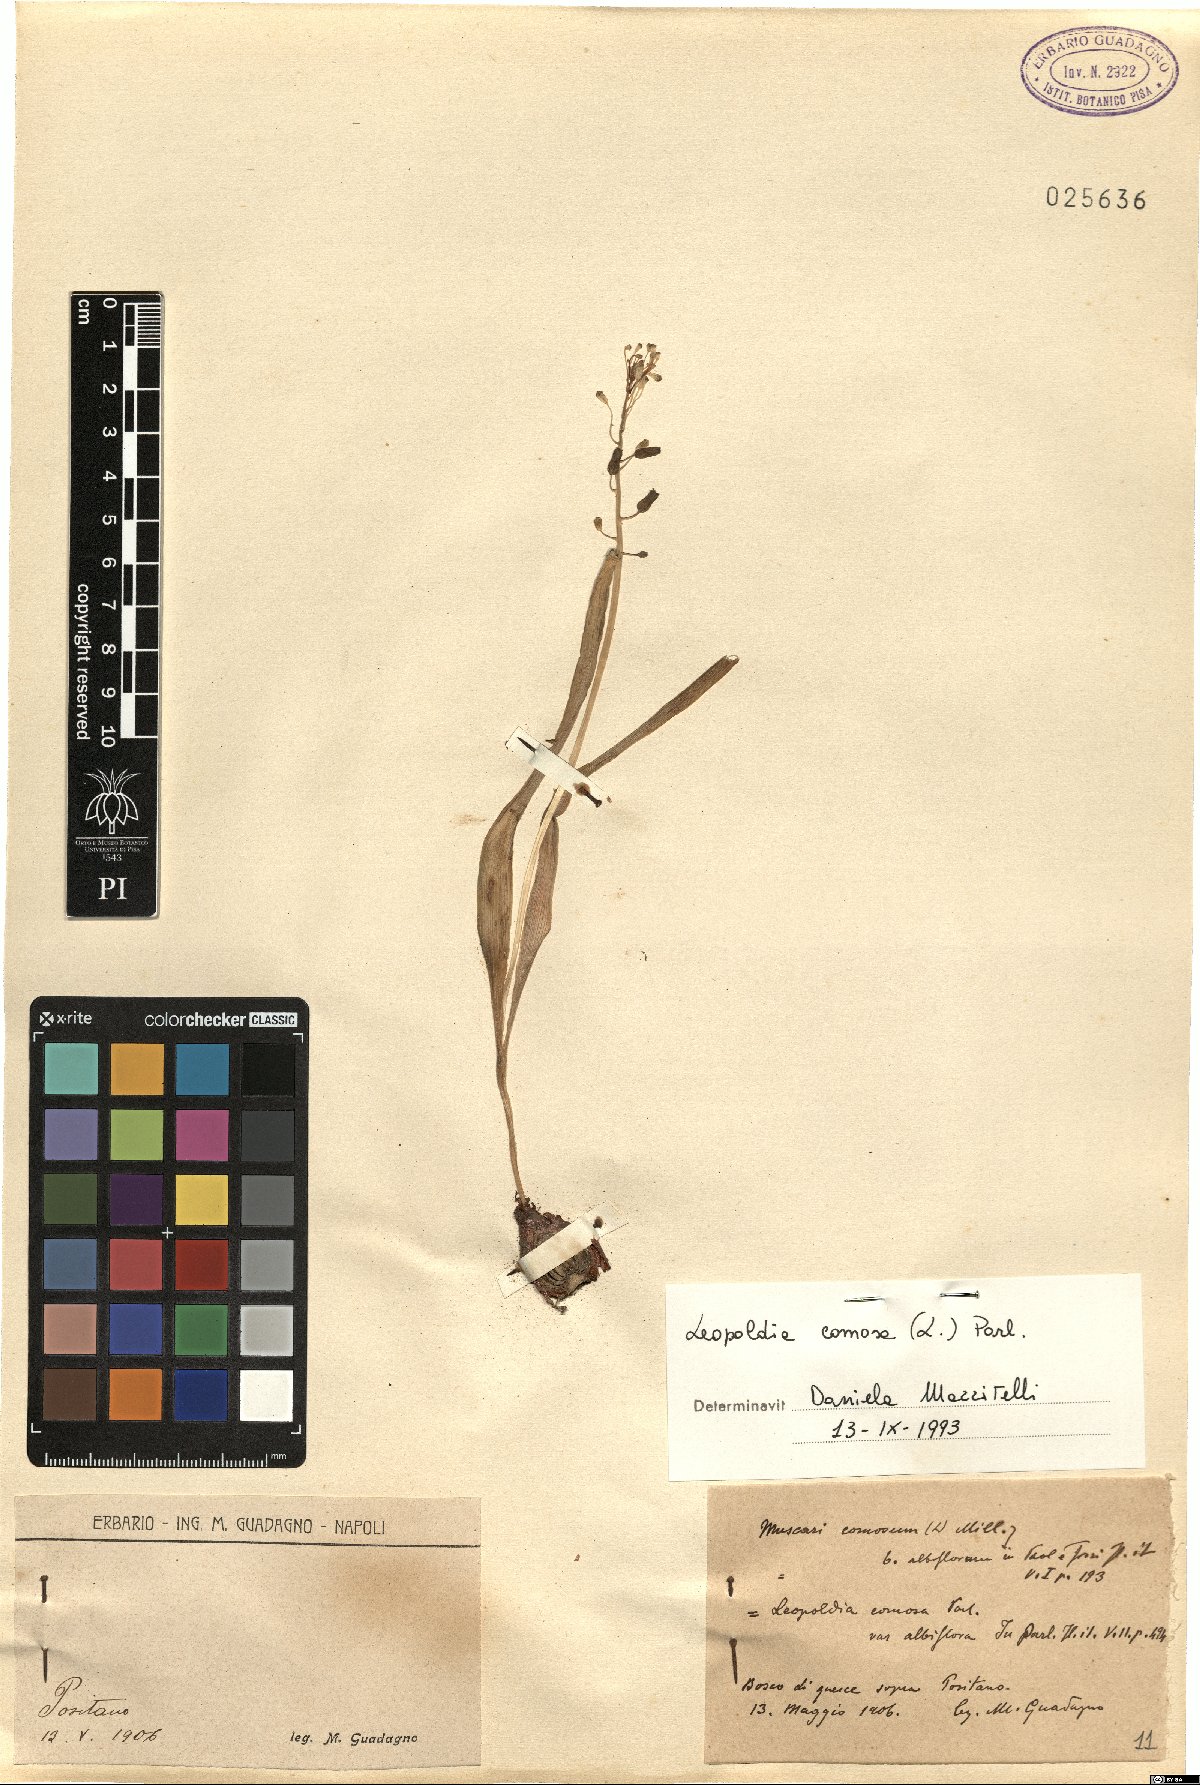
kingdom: Plantae
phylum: Tracheophyta
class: Liliopsida
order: Asparagales
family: Asparagaceae
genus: Muscari
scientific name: Muscari comosum
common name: Tassel hyacinth
